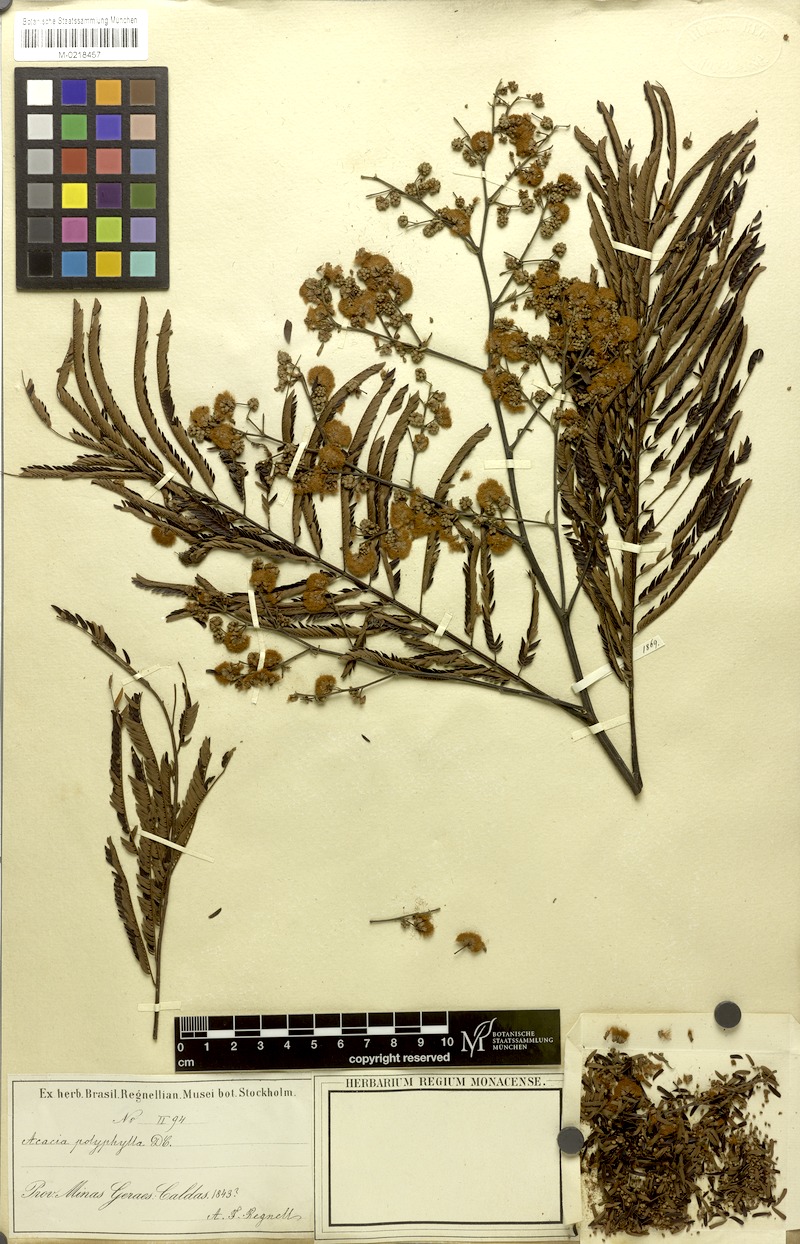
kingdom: Plantae
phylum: Tracheophyta
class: Magnoliopsida
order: Fabales
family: Fabaceae
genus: Senegalia
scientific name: Senegalia polyphylla
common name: White-tamarind
